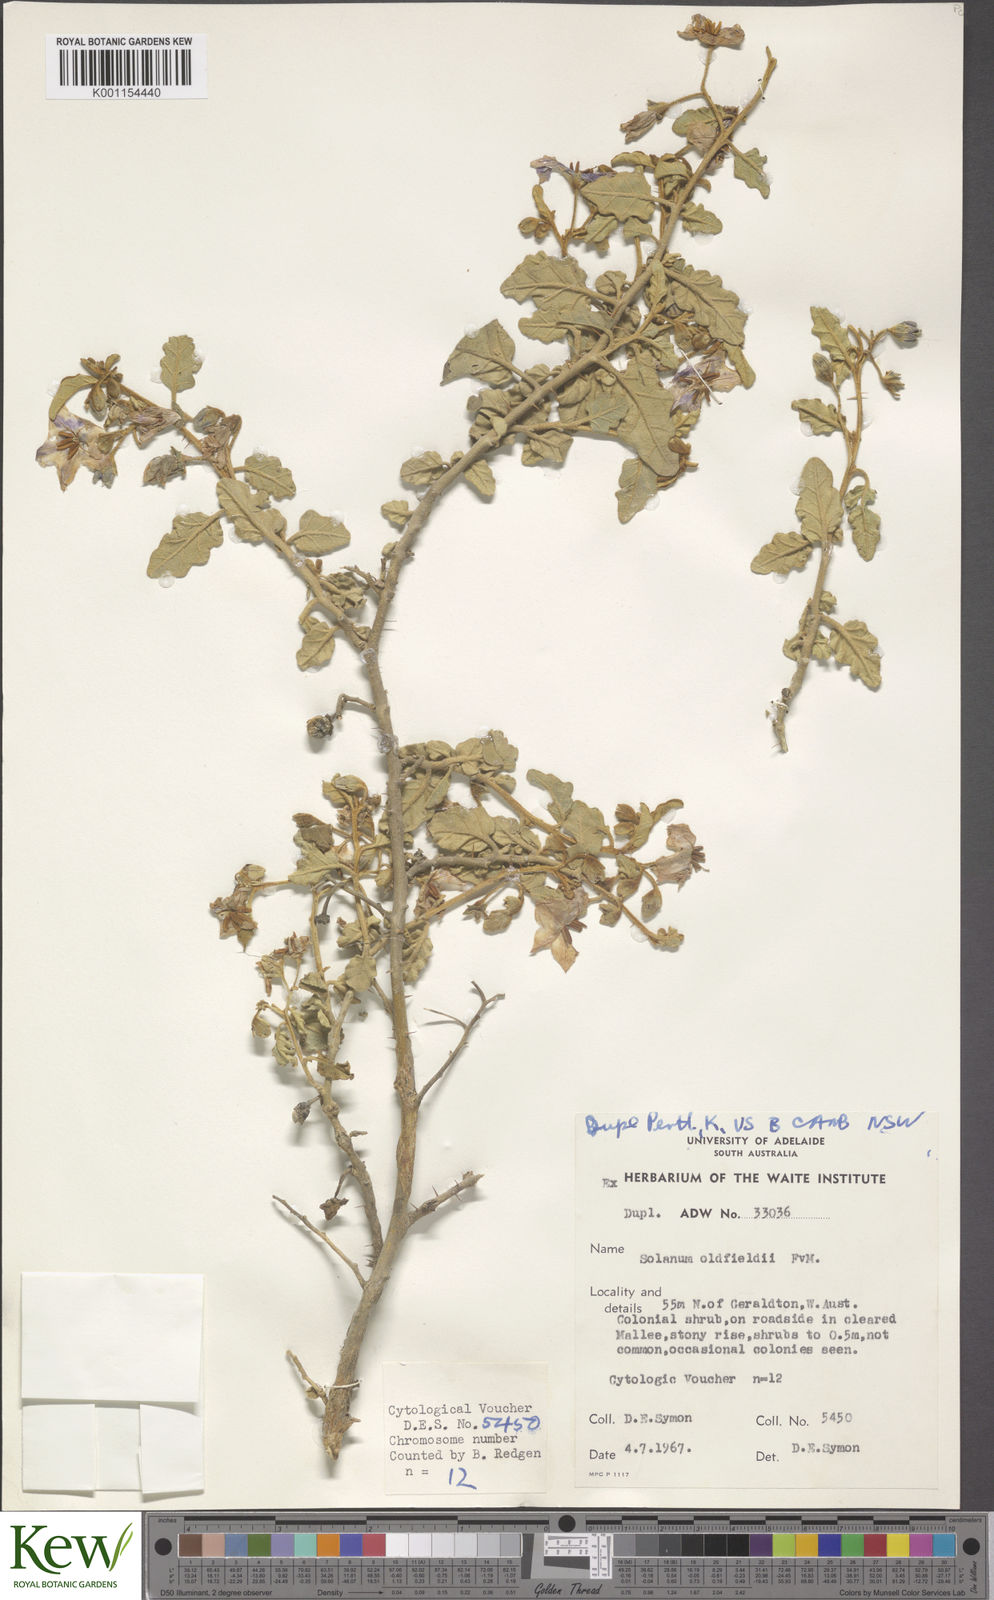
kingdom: Plantae
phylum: Tracheophyta
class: Magnoliopsida
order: Solanales
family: Solanaceae
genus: Solanum
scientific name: Solanum oldfieldii
